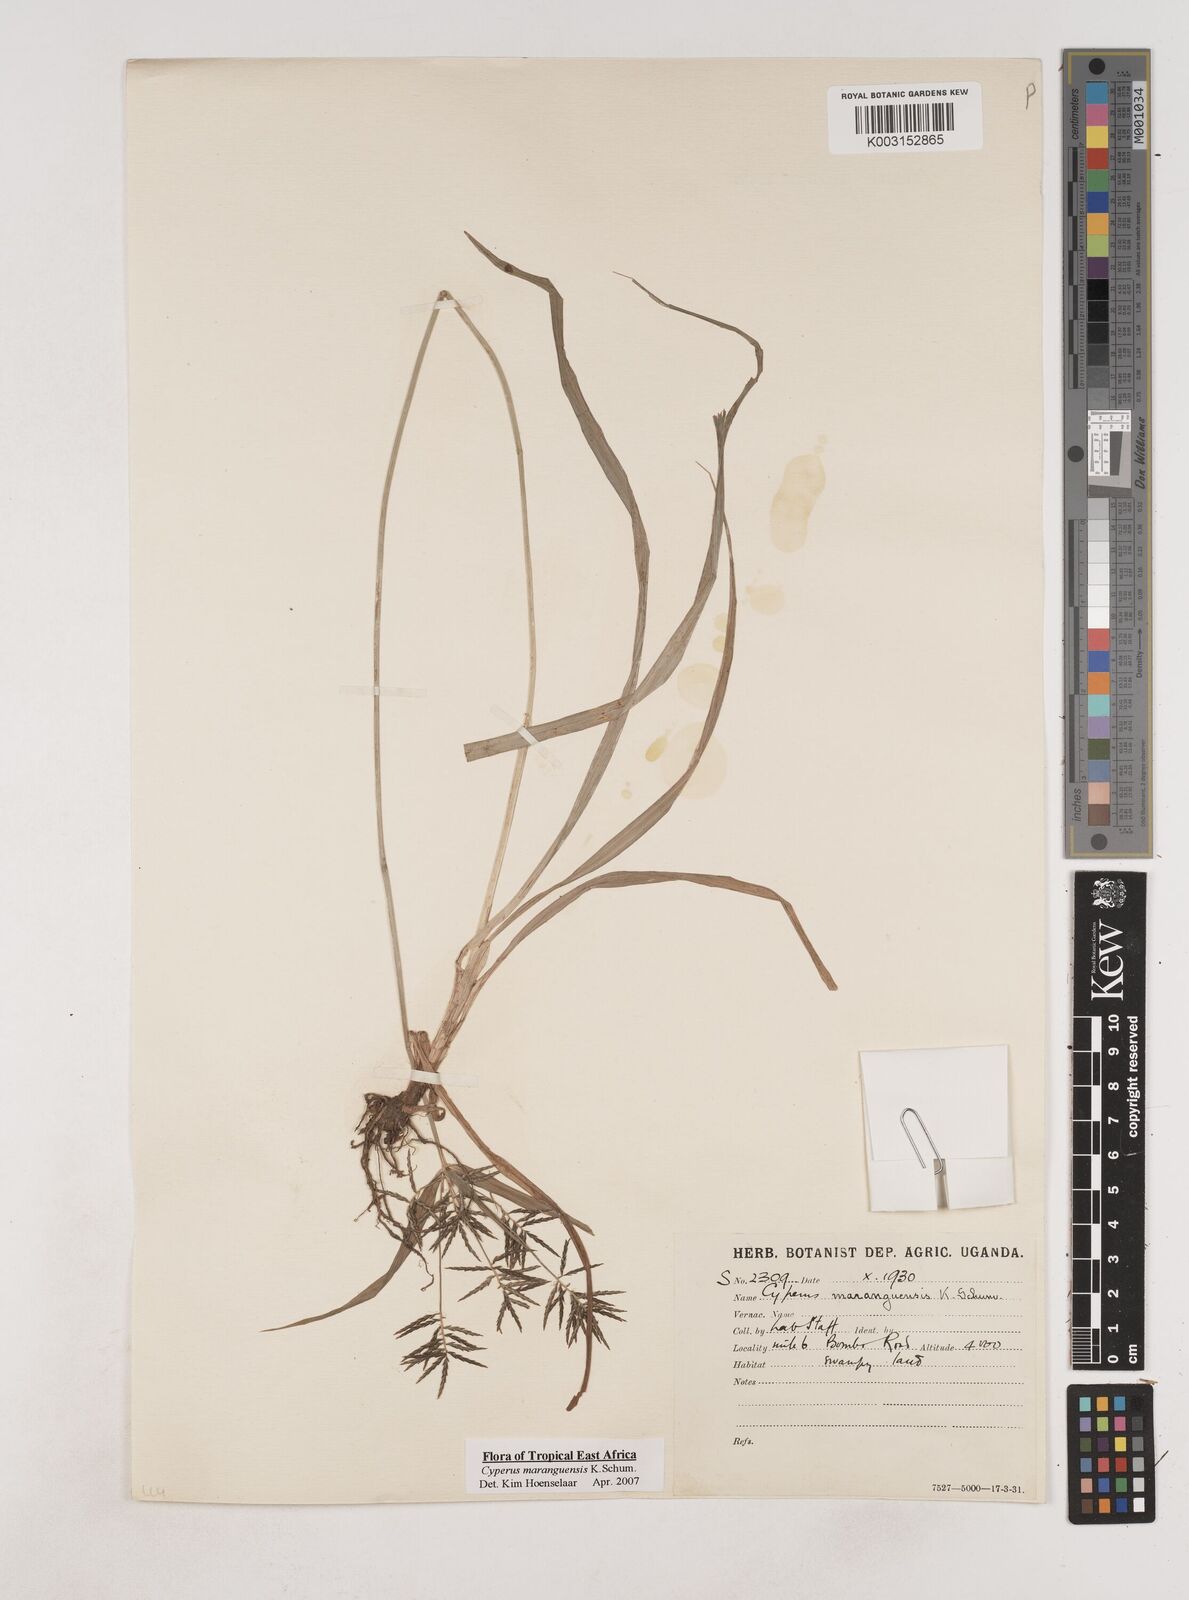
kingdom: Plantae
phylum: Tracheophyta
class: Liliopsida
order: Poales
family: Cyperaceae
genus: Cyperus
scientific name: Cyperus maranguensis
